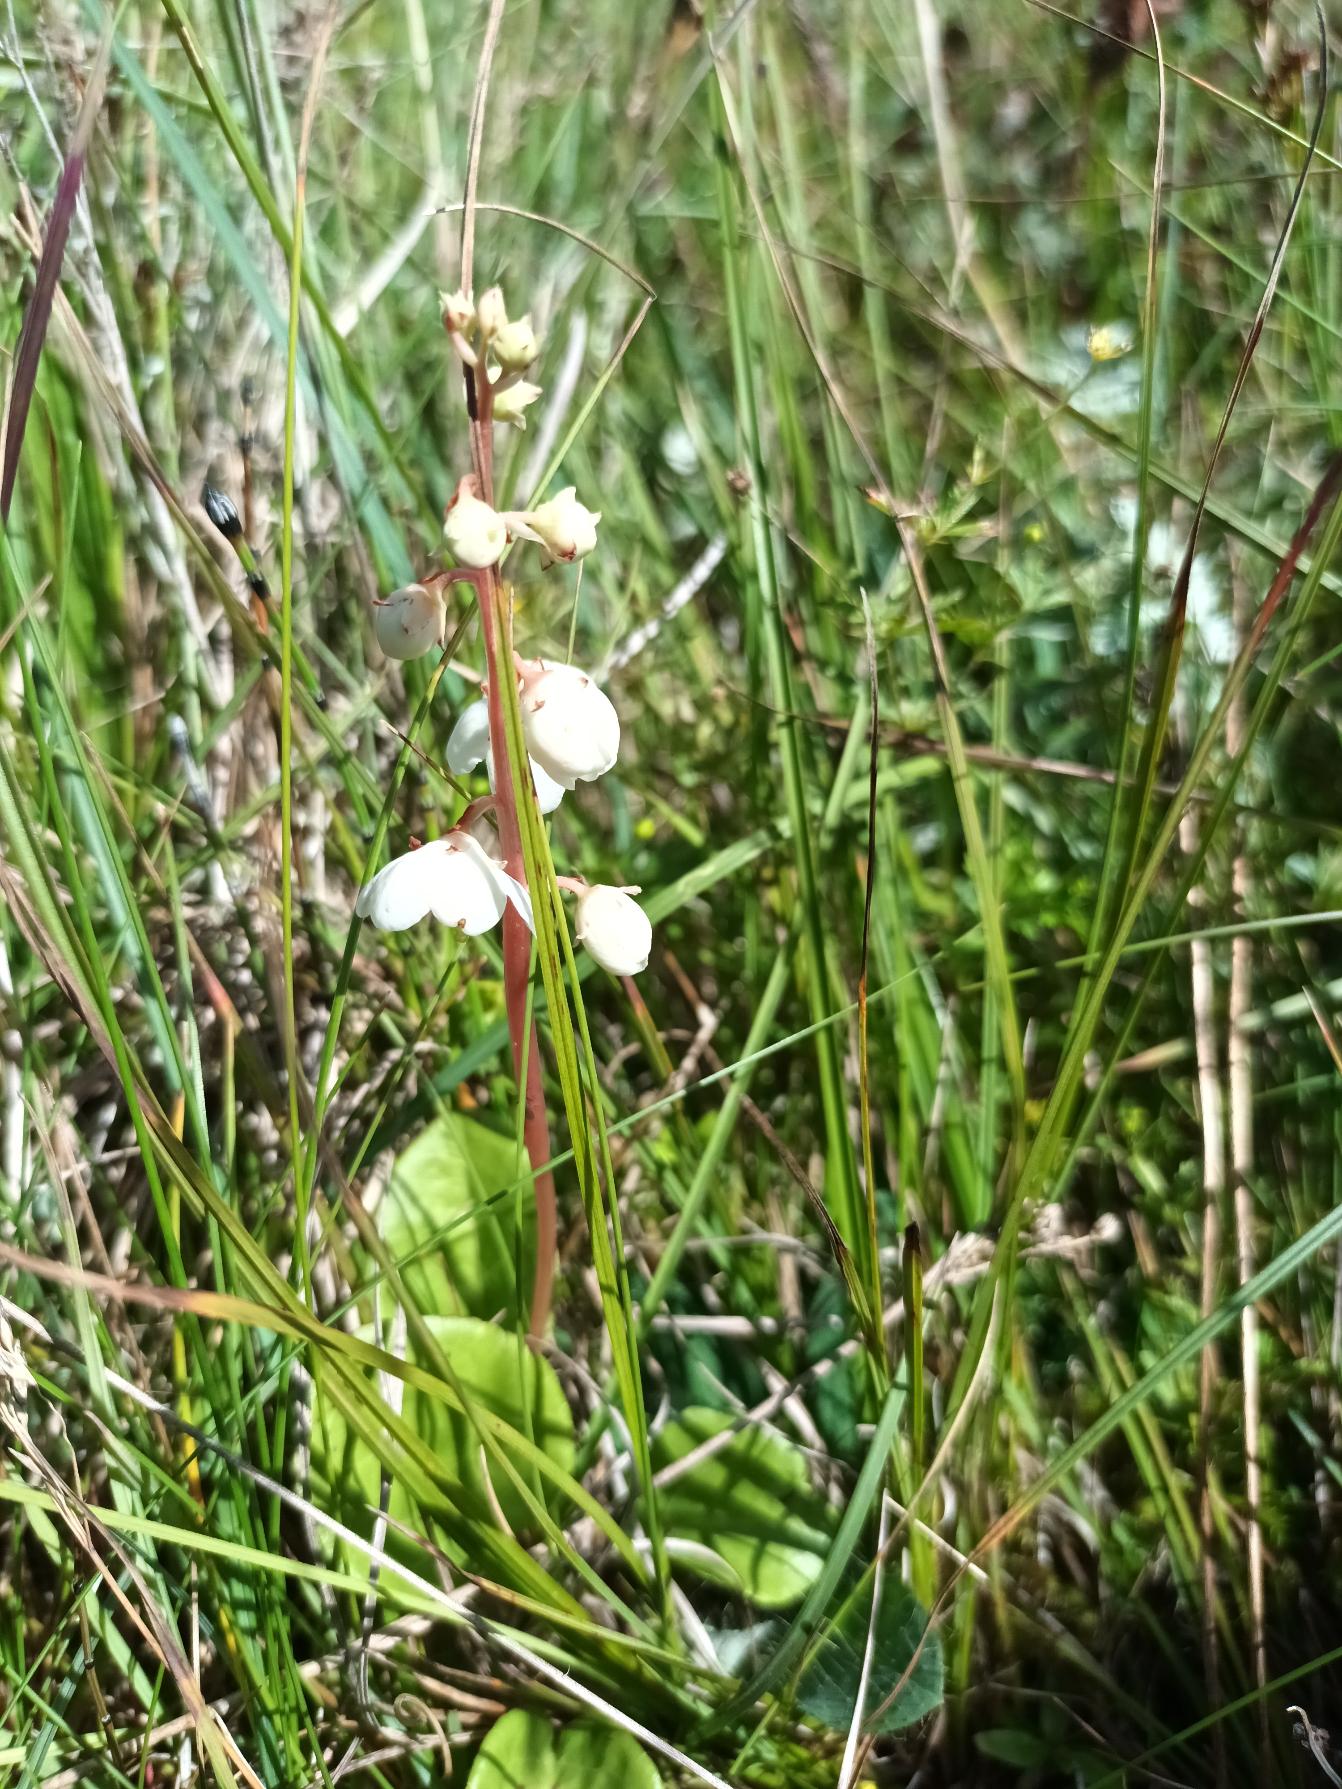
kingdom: Plantae
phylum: Tracheophyta
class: Magnoliopsida
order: Ericales
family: Ericaceae
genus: Pyrola
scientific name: Pyrola rotundifolia
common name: Klit-vintergrøn
